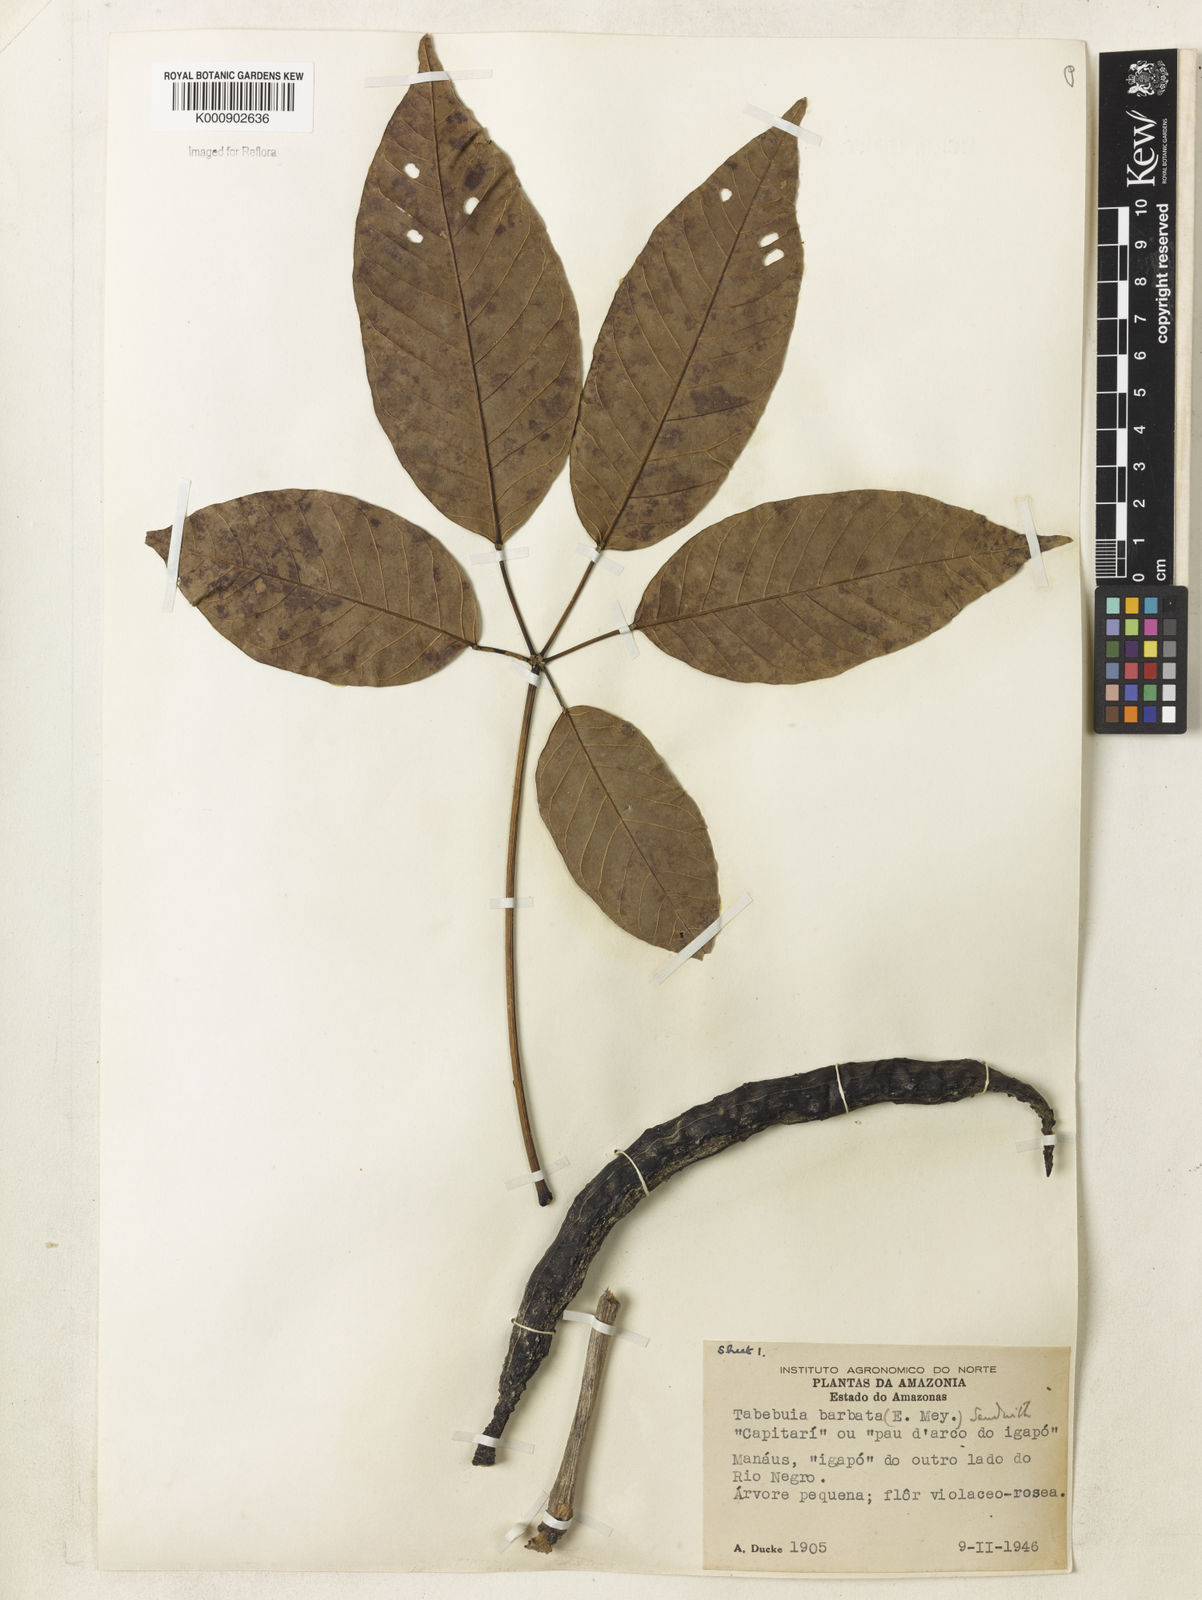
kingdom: Plantae
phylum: Tracheophyta
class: Magnoliopsida
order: Lamiales
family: Bignoniaceae
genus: Handroanthus
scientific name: Handroanthus barbatus
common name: Trumpet trees
